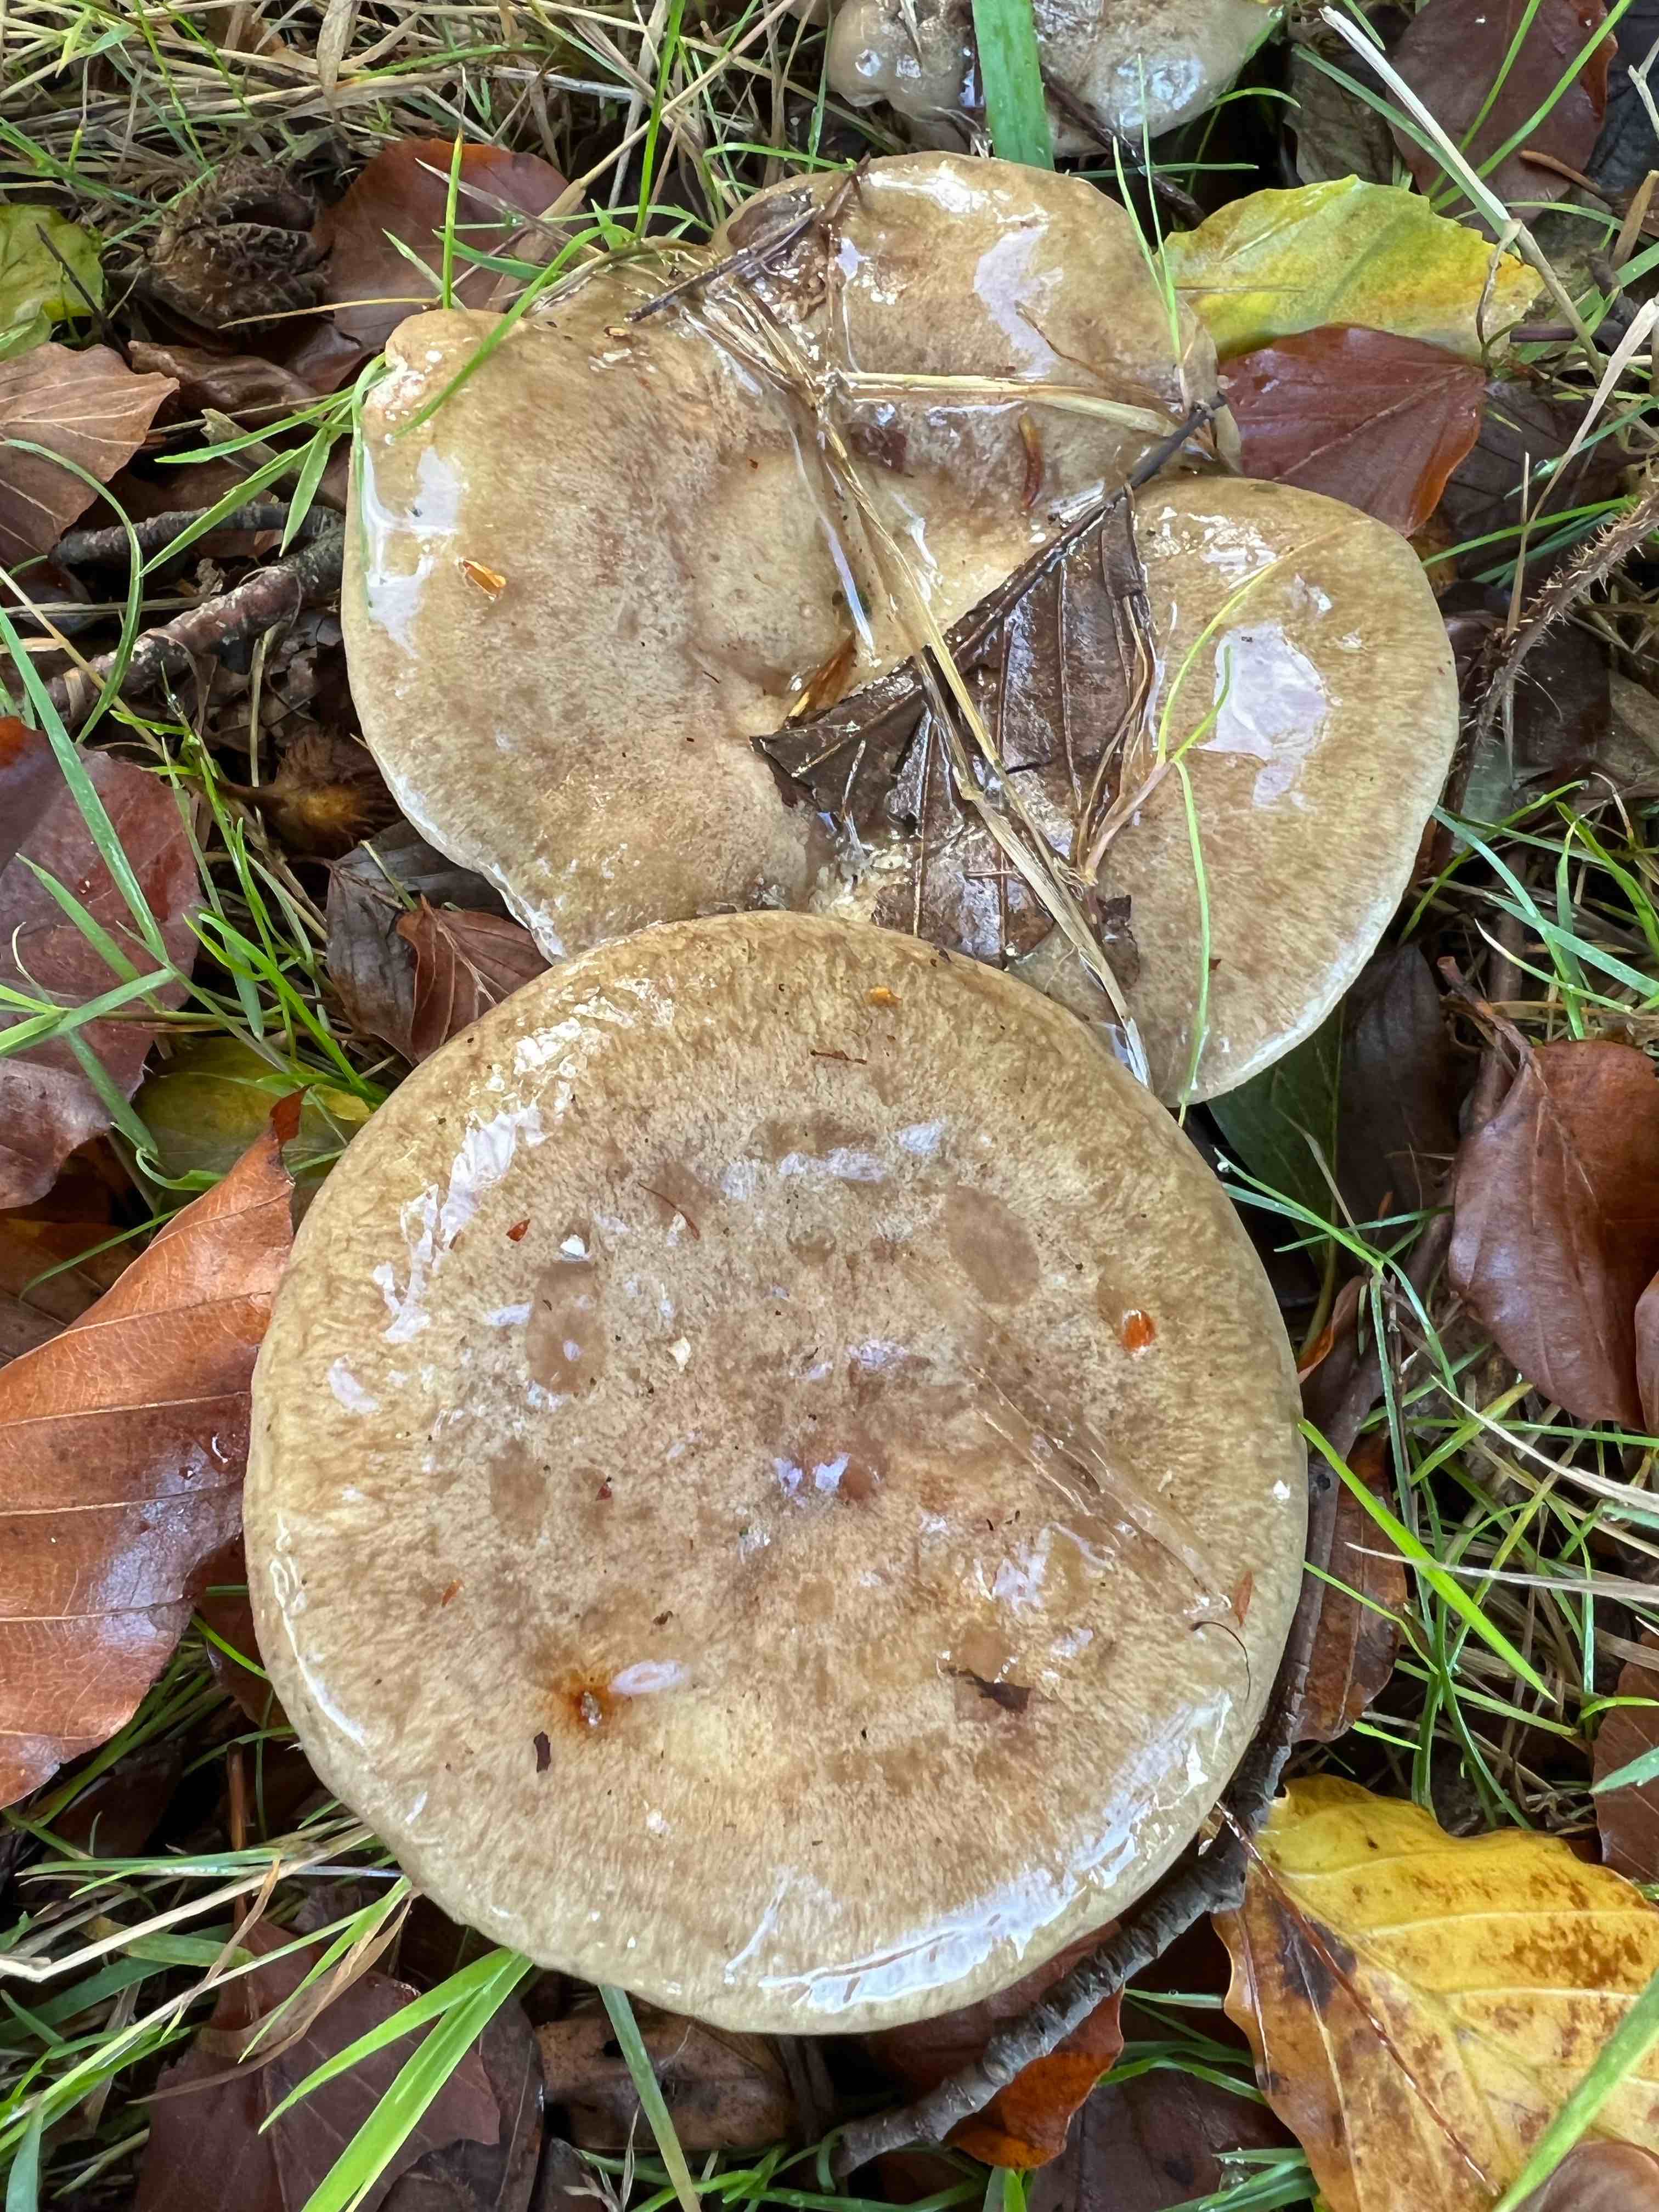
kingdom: Fungi
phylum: Basidiomycota
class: Agaricomycetes
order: Russulales
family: Russulaceae
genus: Lactarius
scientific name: Lactarius blennius
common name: dråbeplettet mælkehat
